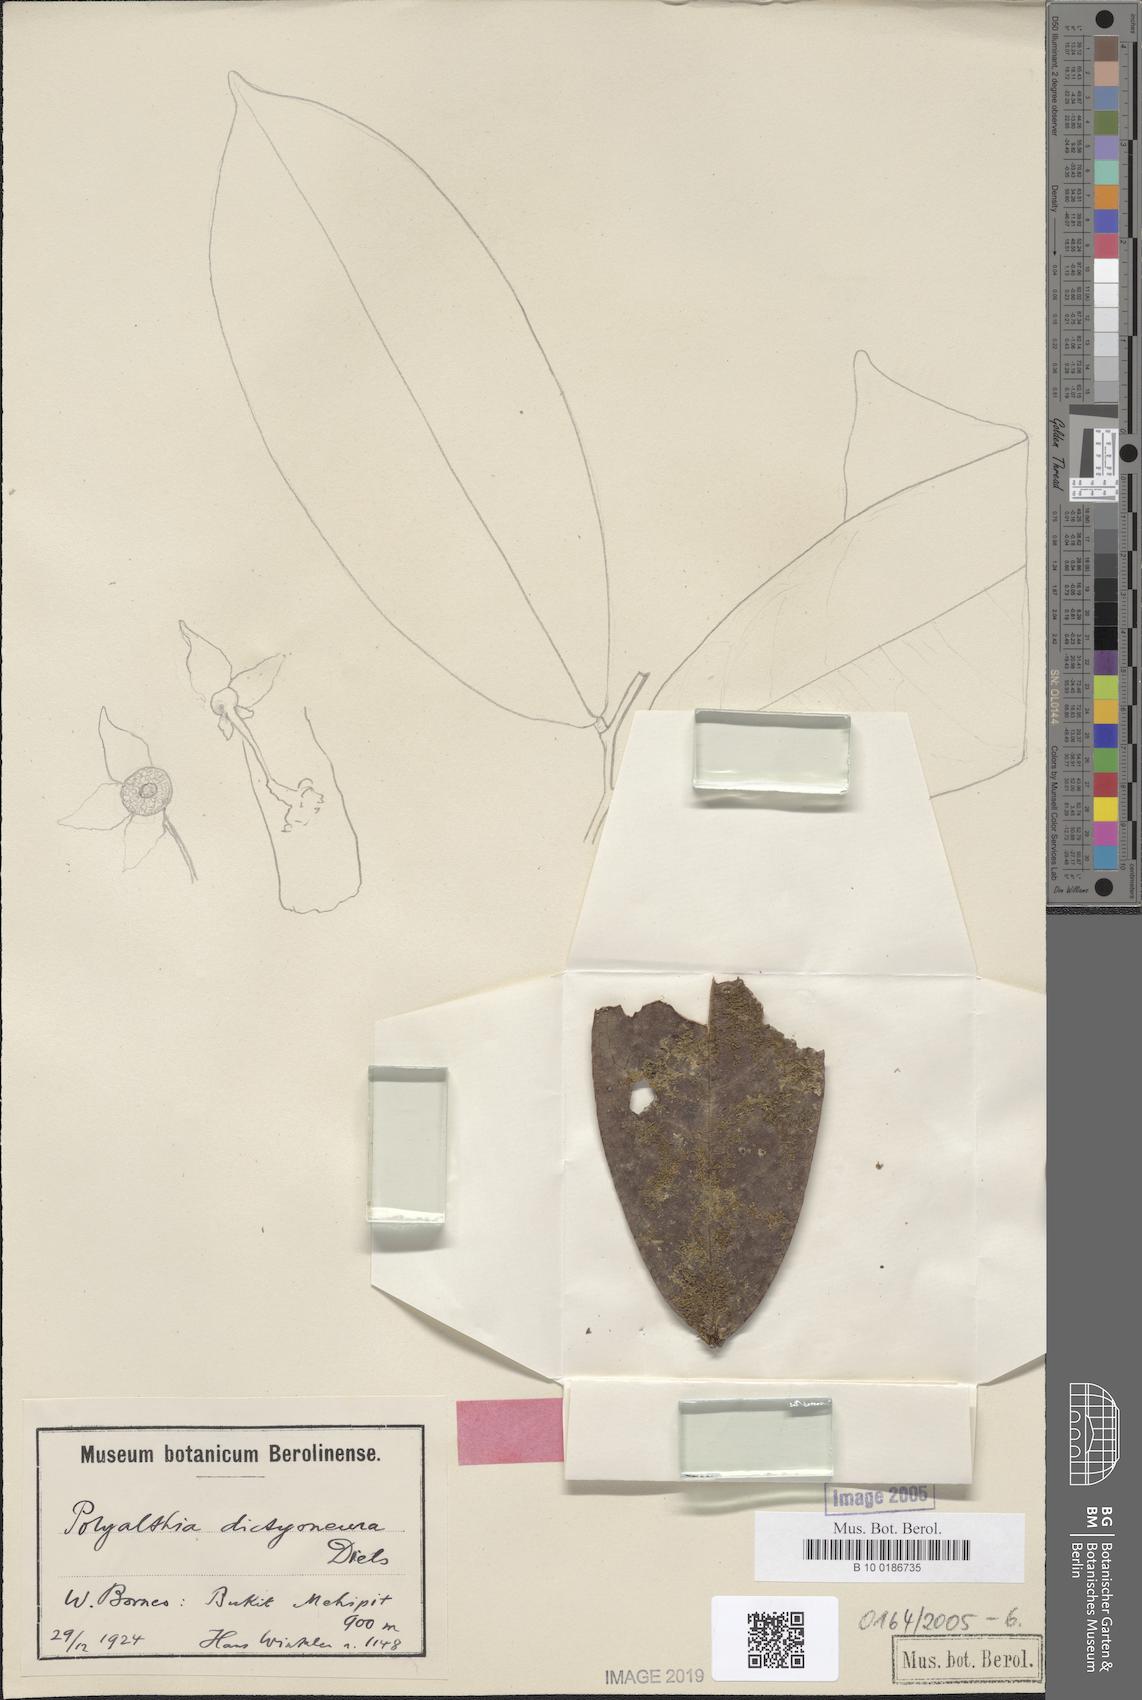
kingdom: Plantae
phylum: Tracheophyta
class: Magnoliopsida
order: Magnoliales
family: Annonaceae
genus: Polyalthia
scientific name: Polyalthia dictyoneura
